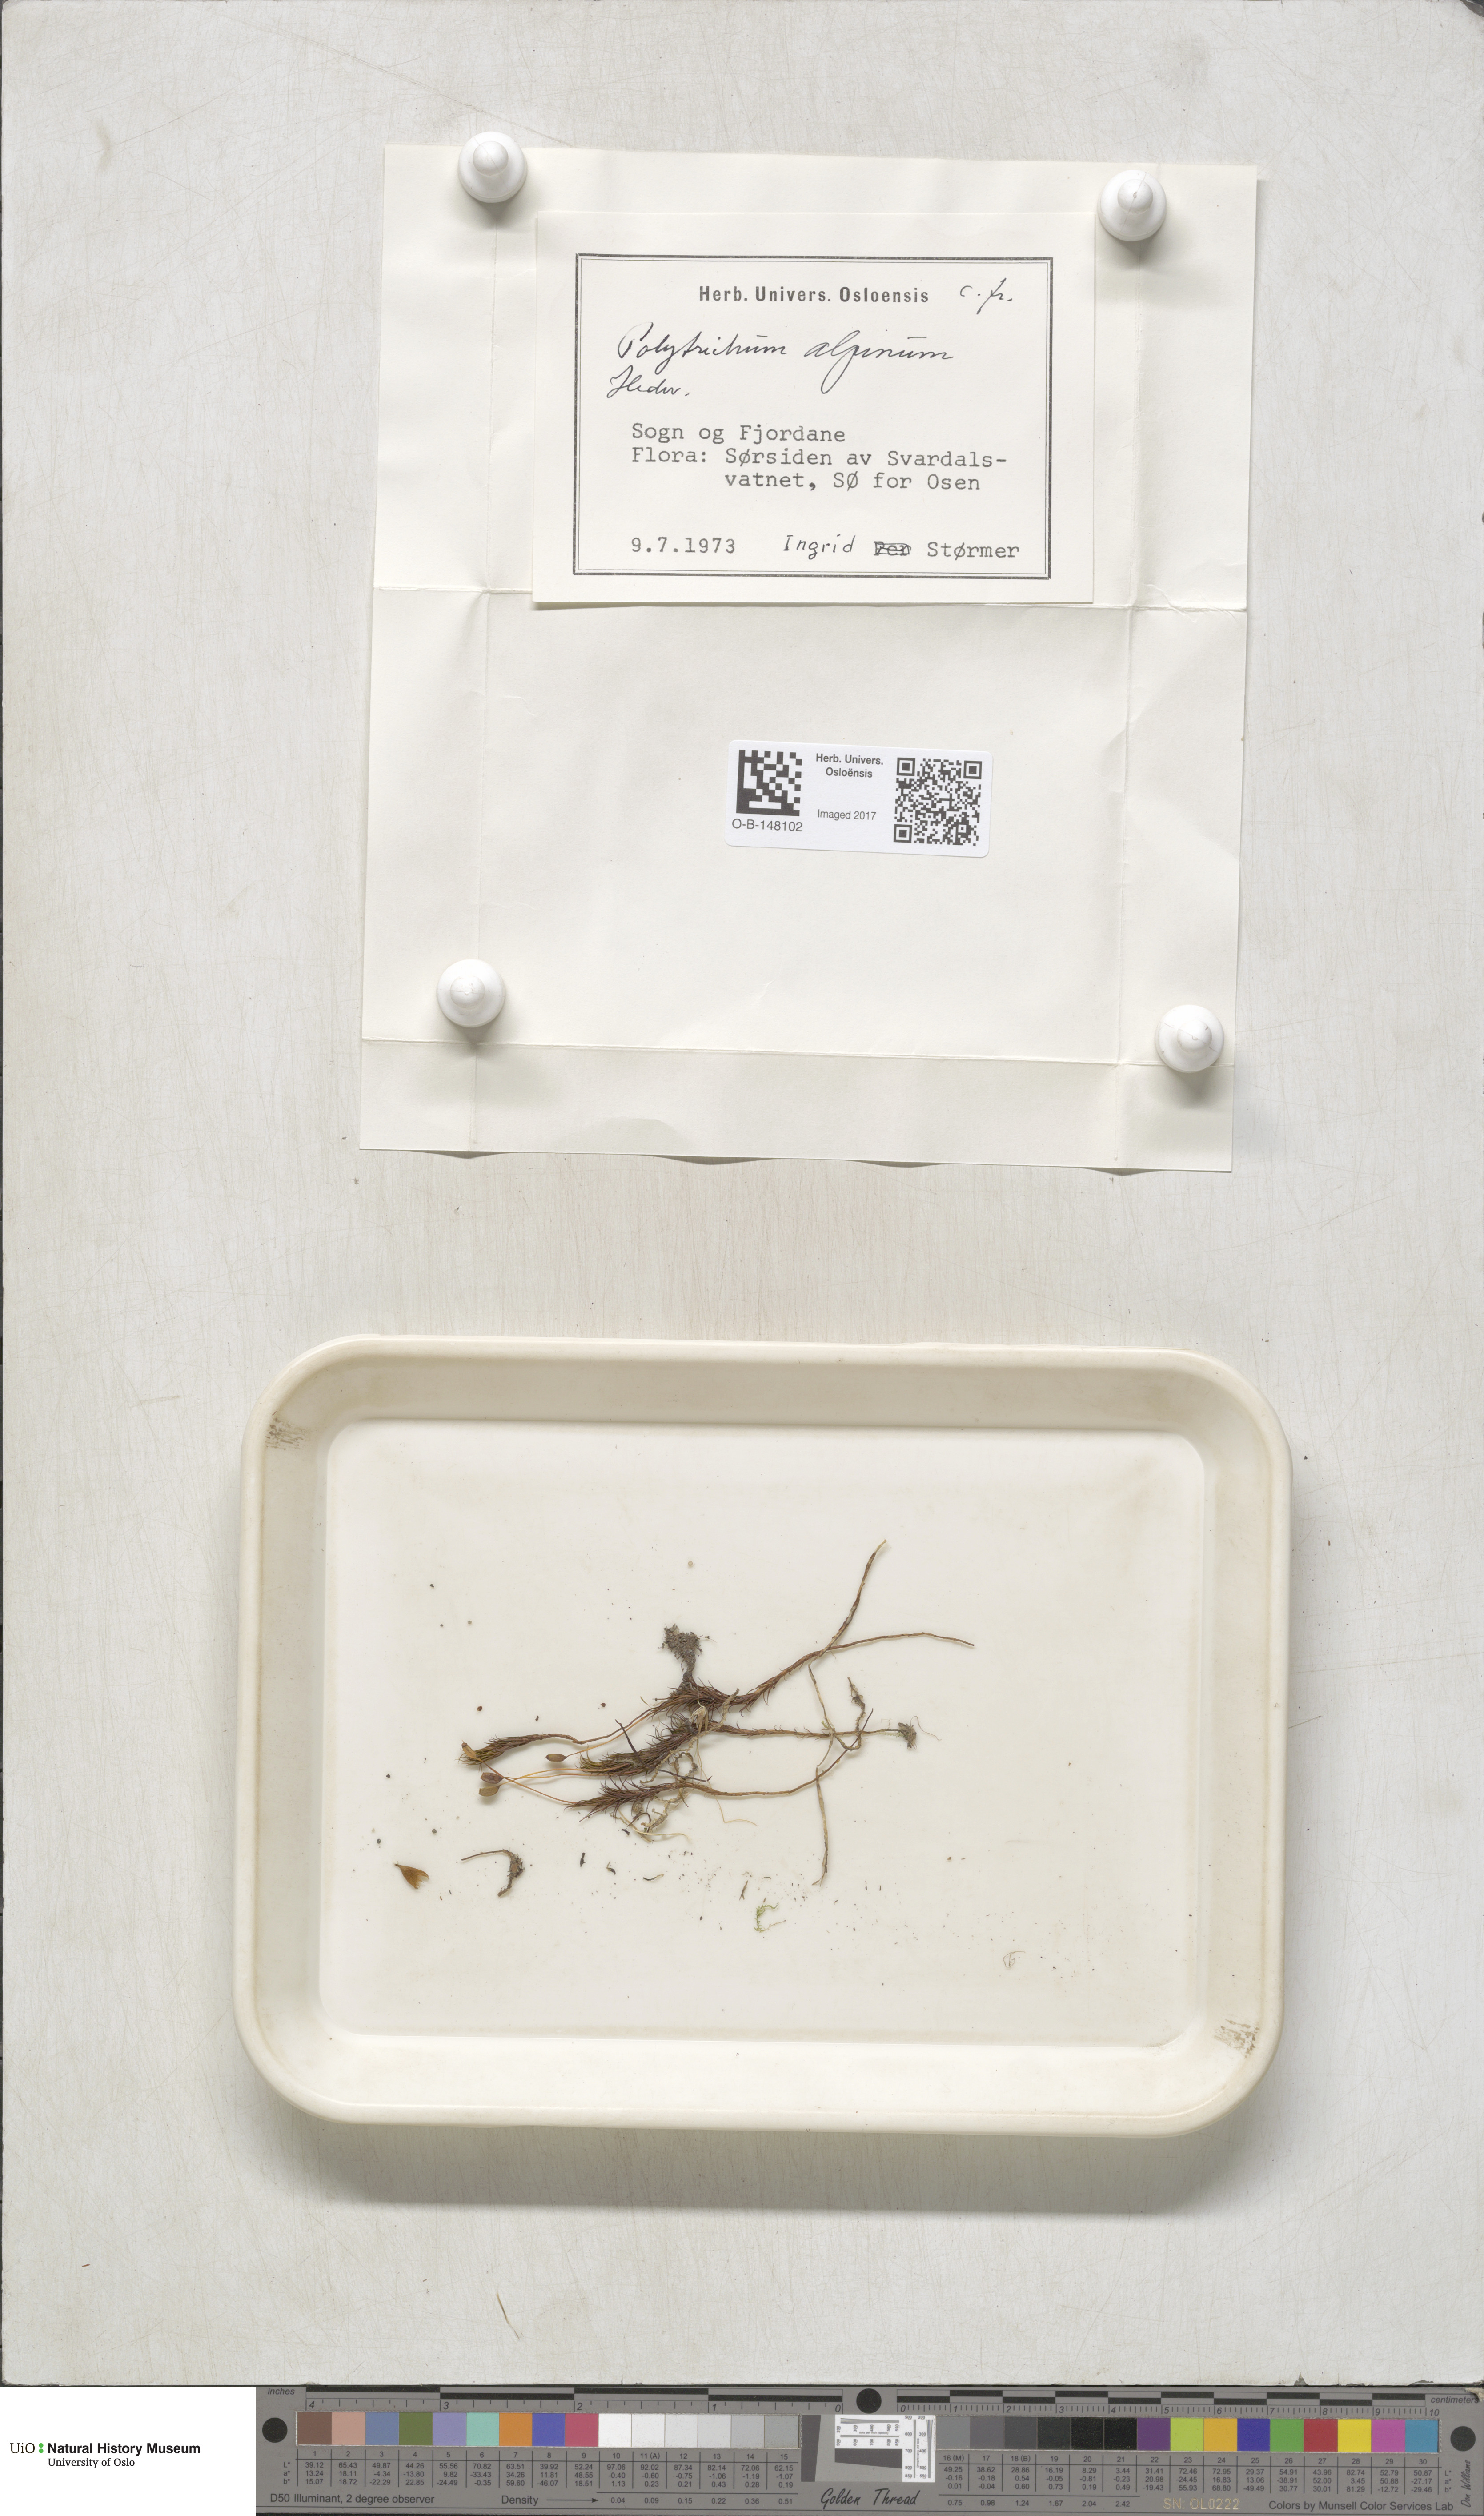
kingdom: Plantae
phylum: Bryophyta
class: Polytrichopsida
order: Polytrichales
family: Polytrichaceae
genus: Polytrichastrum
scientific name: Polytrichastrum alpinum
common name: Alpine haircap
